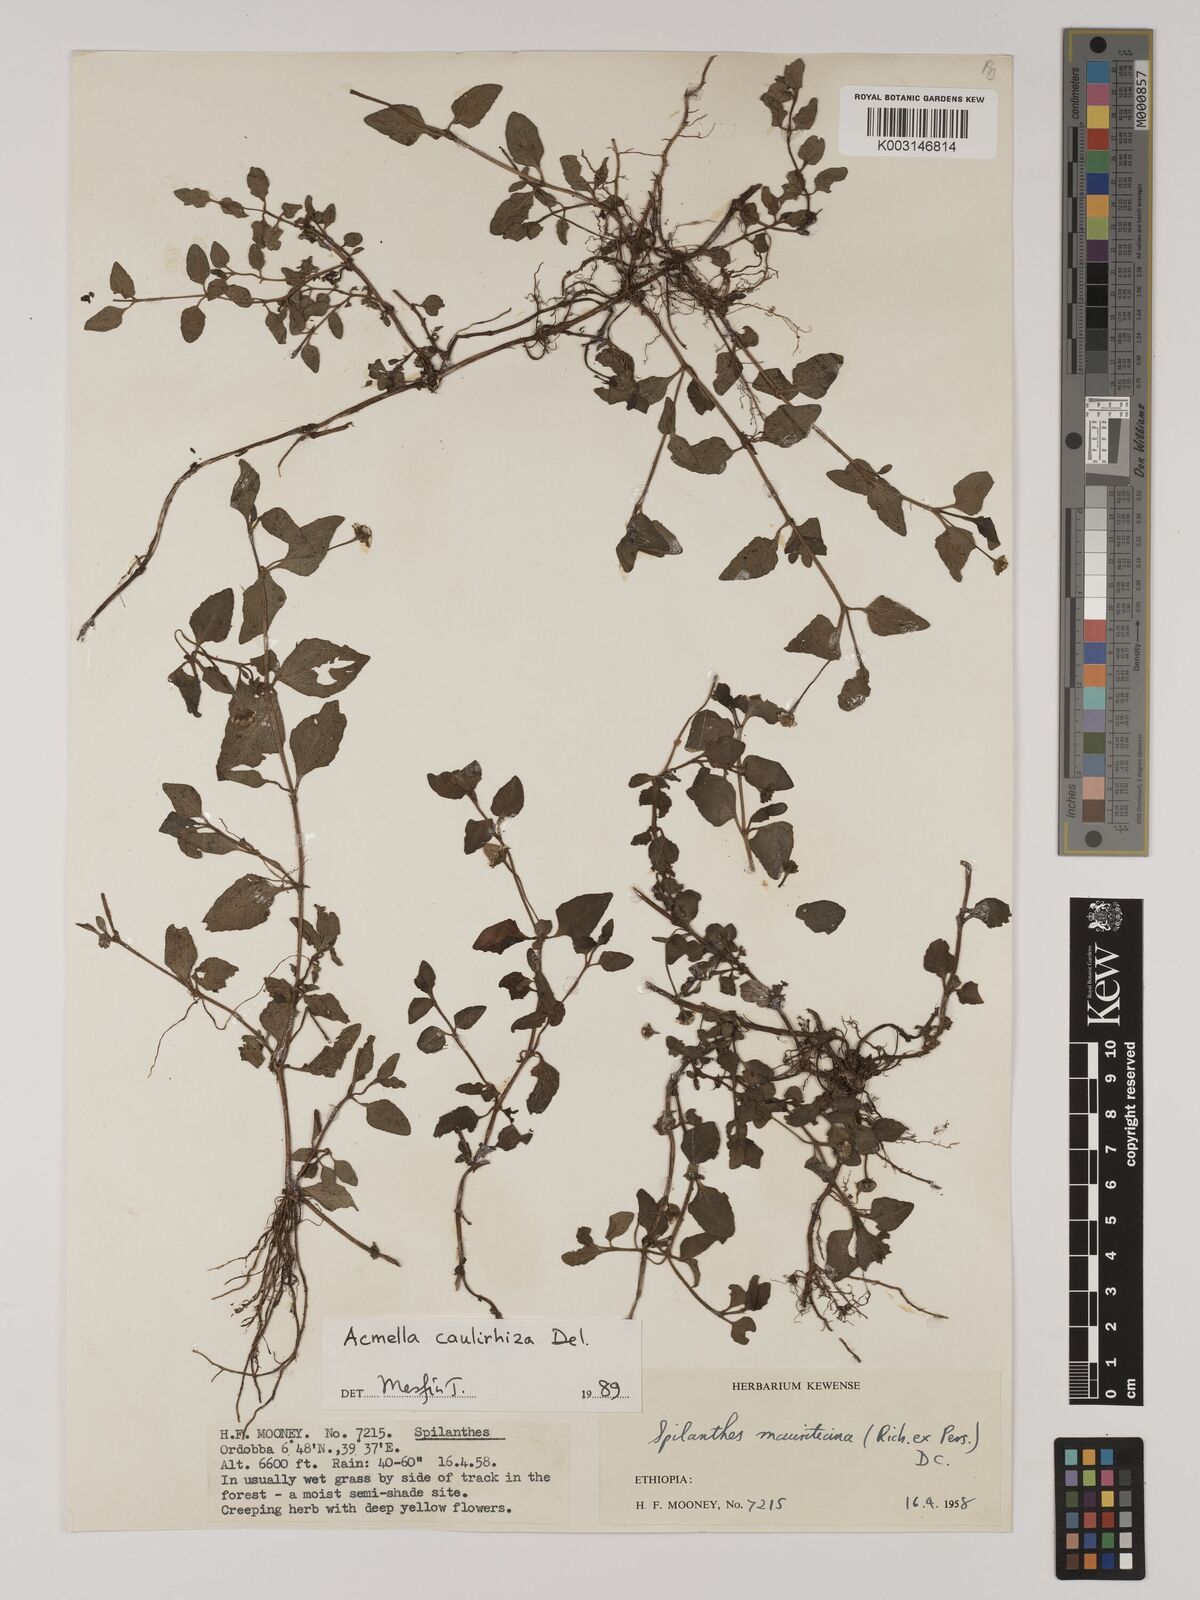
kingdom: Plantae
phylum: Tracheophyta
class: Magnoliopsida
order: Asterales
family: Asteraceae
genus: Blainvillea
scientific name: Blainvillea acmella
